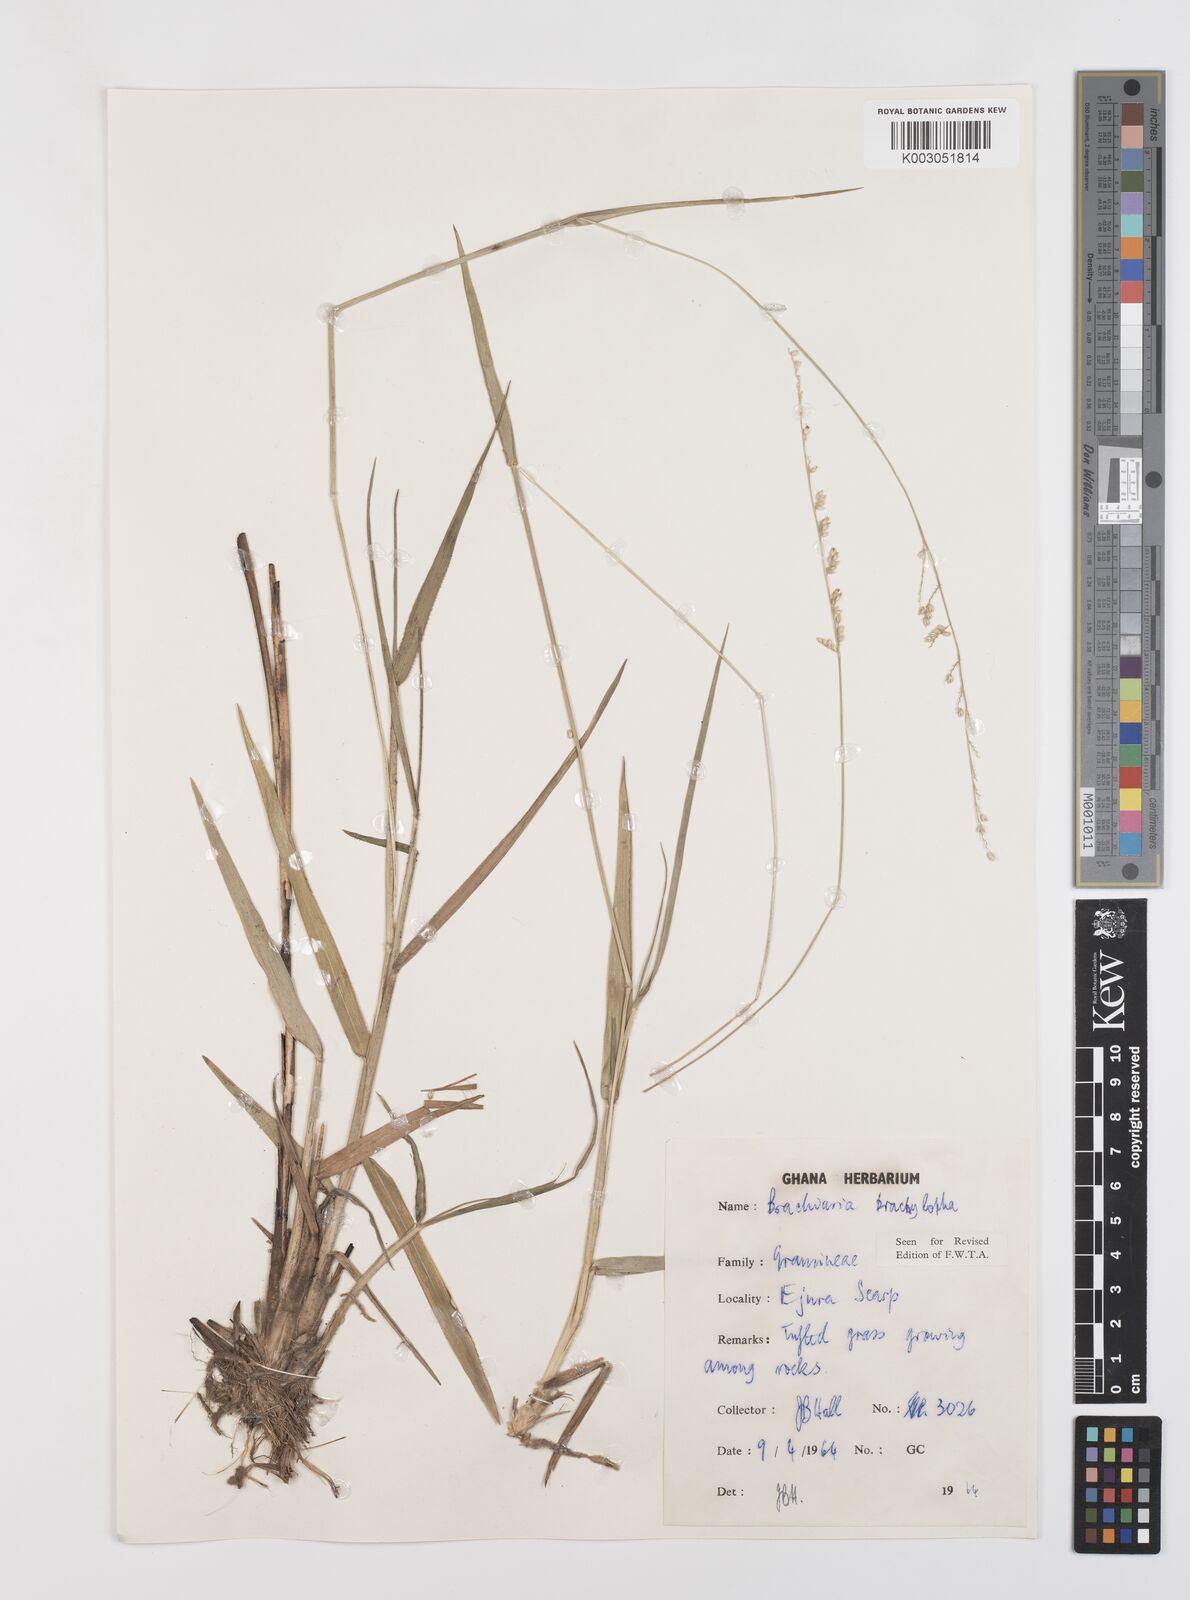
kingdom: Plantae
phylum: Tracheophyta
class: Liliopsida
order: Poales
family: Poaceae
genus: Urochloa
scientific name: Urochloa serrata
